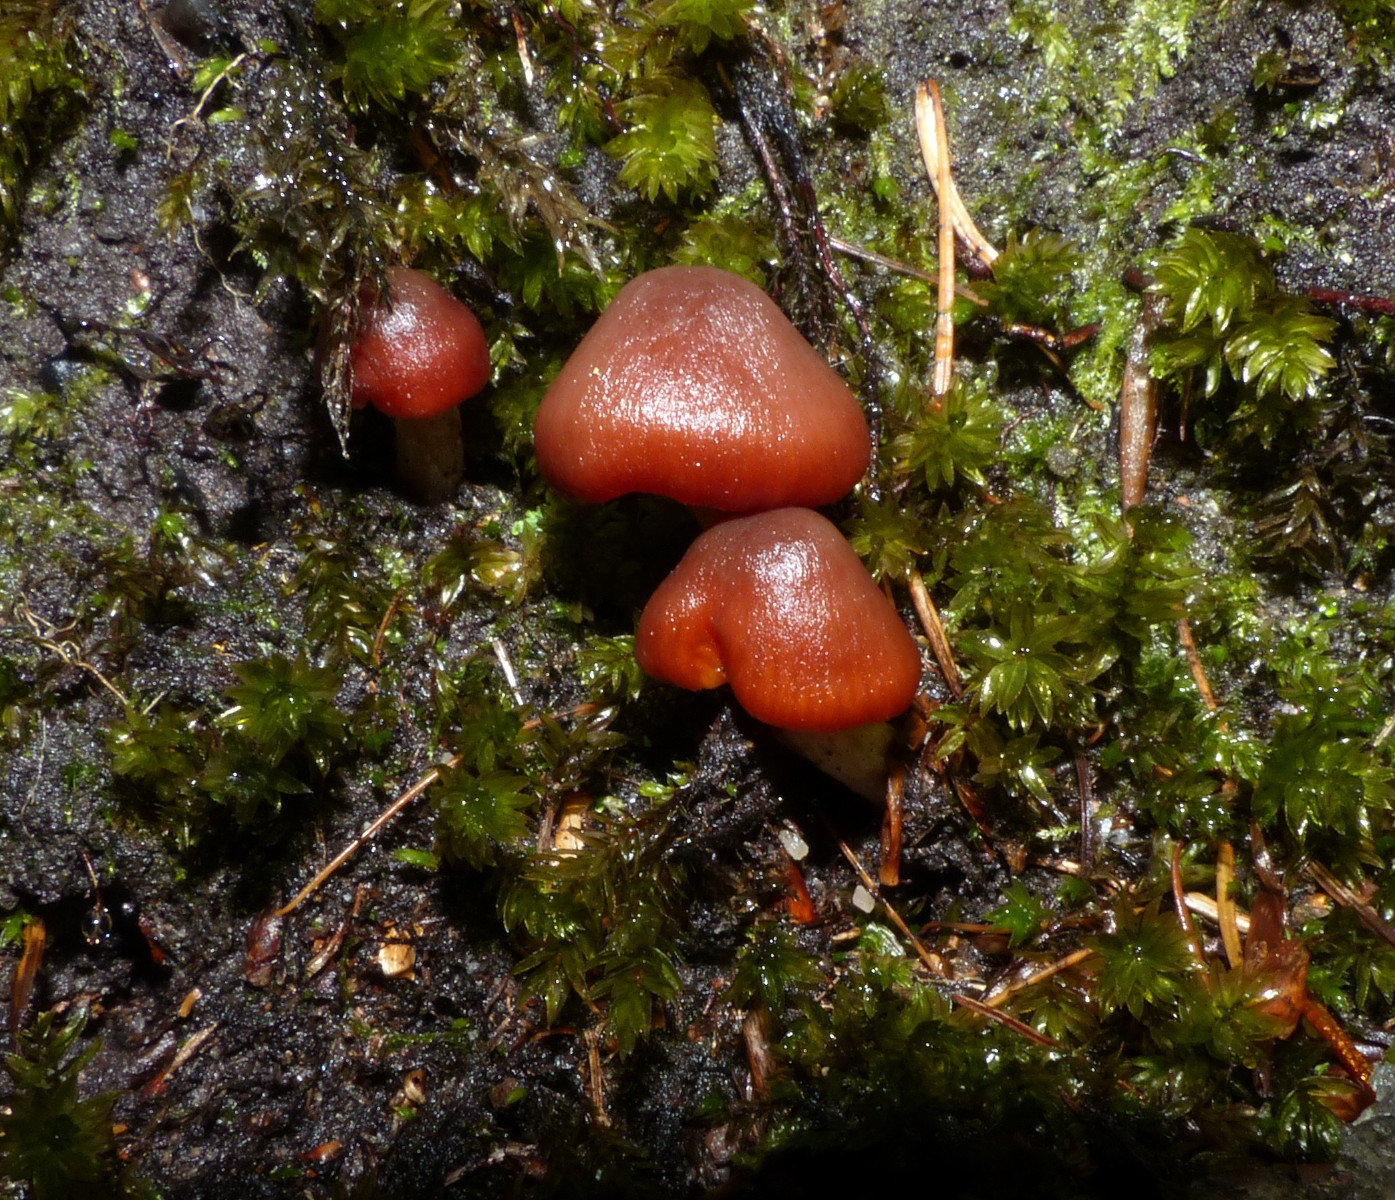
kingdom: Fungi
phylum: Basidiomycota
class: Agaricomycetes
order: Agaricales
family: Cortinariaceae
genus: Cortinarius
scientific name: Cortinarius
